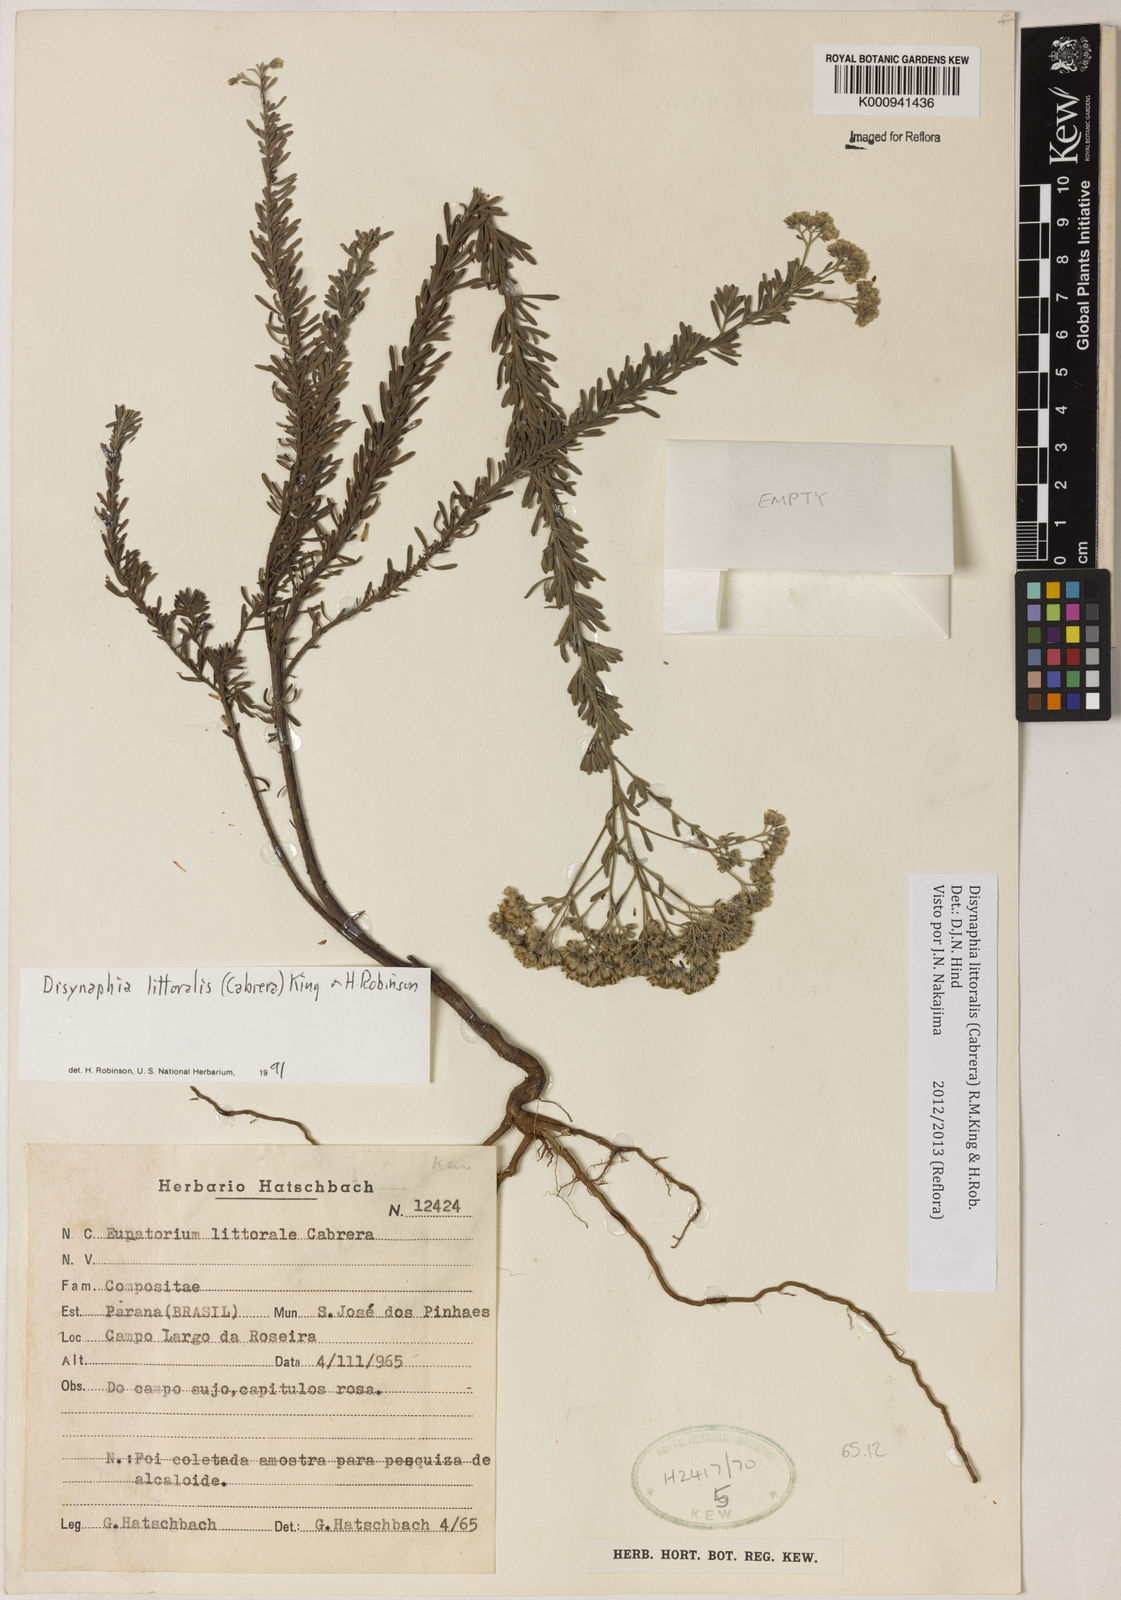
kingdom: Plantae
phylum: Tracheophyta
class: Magnoliopsida
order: Asterales
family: Asteraceae
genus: Disynaphia
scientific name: Disynaphia littoralis
